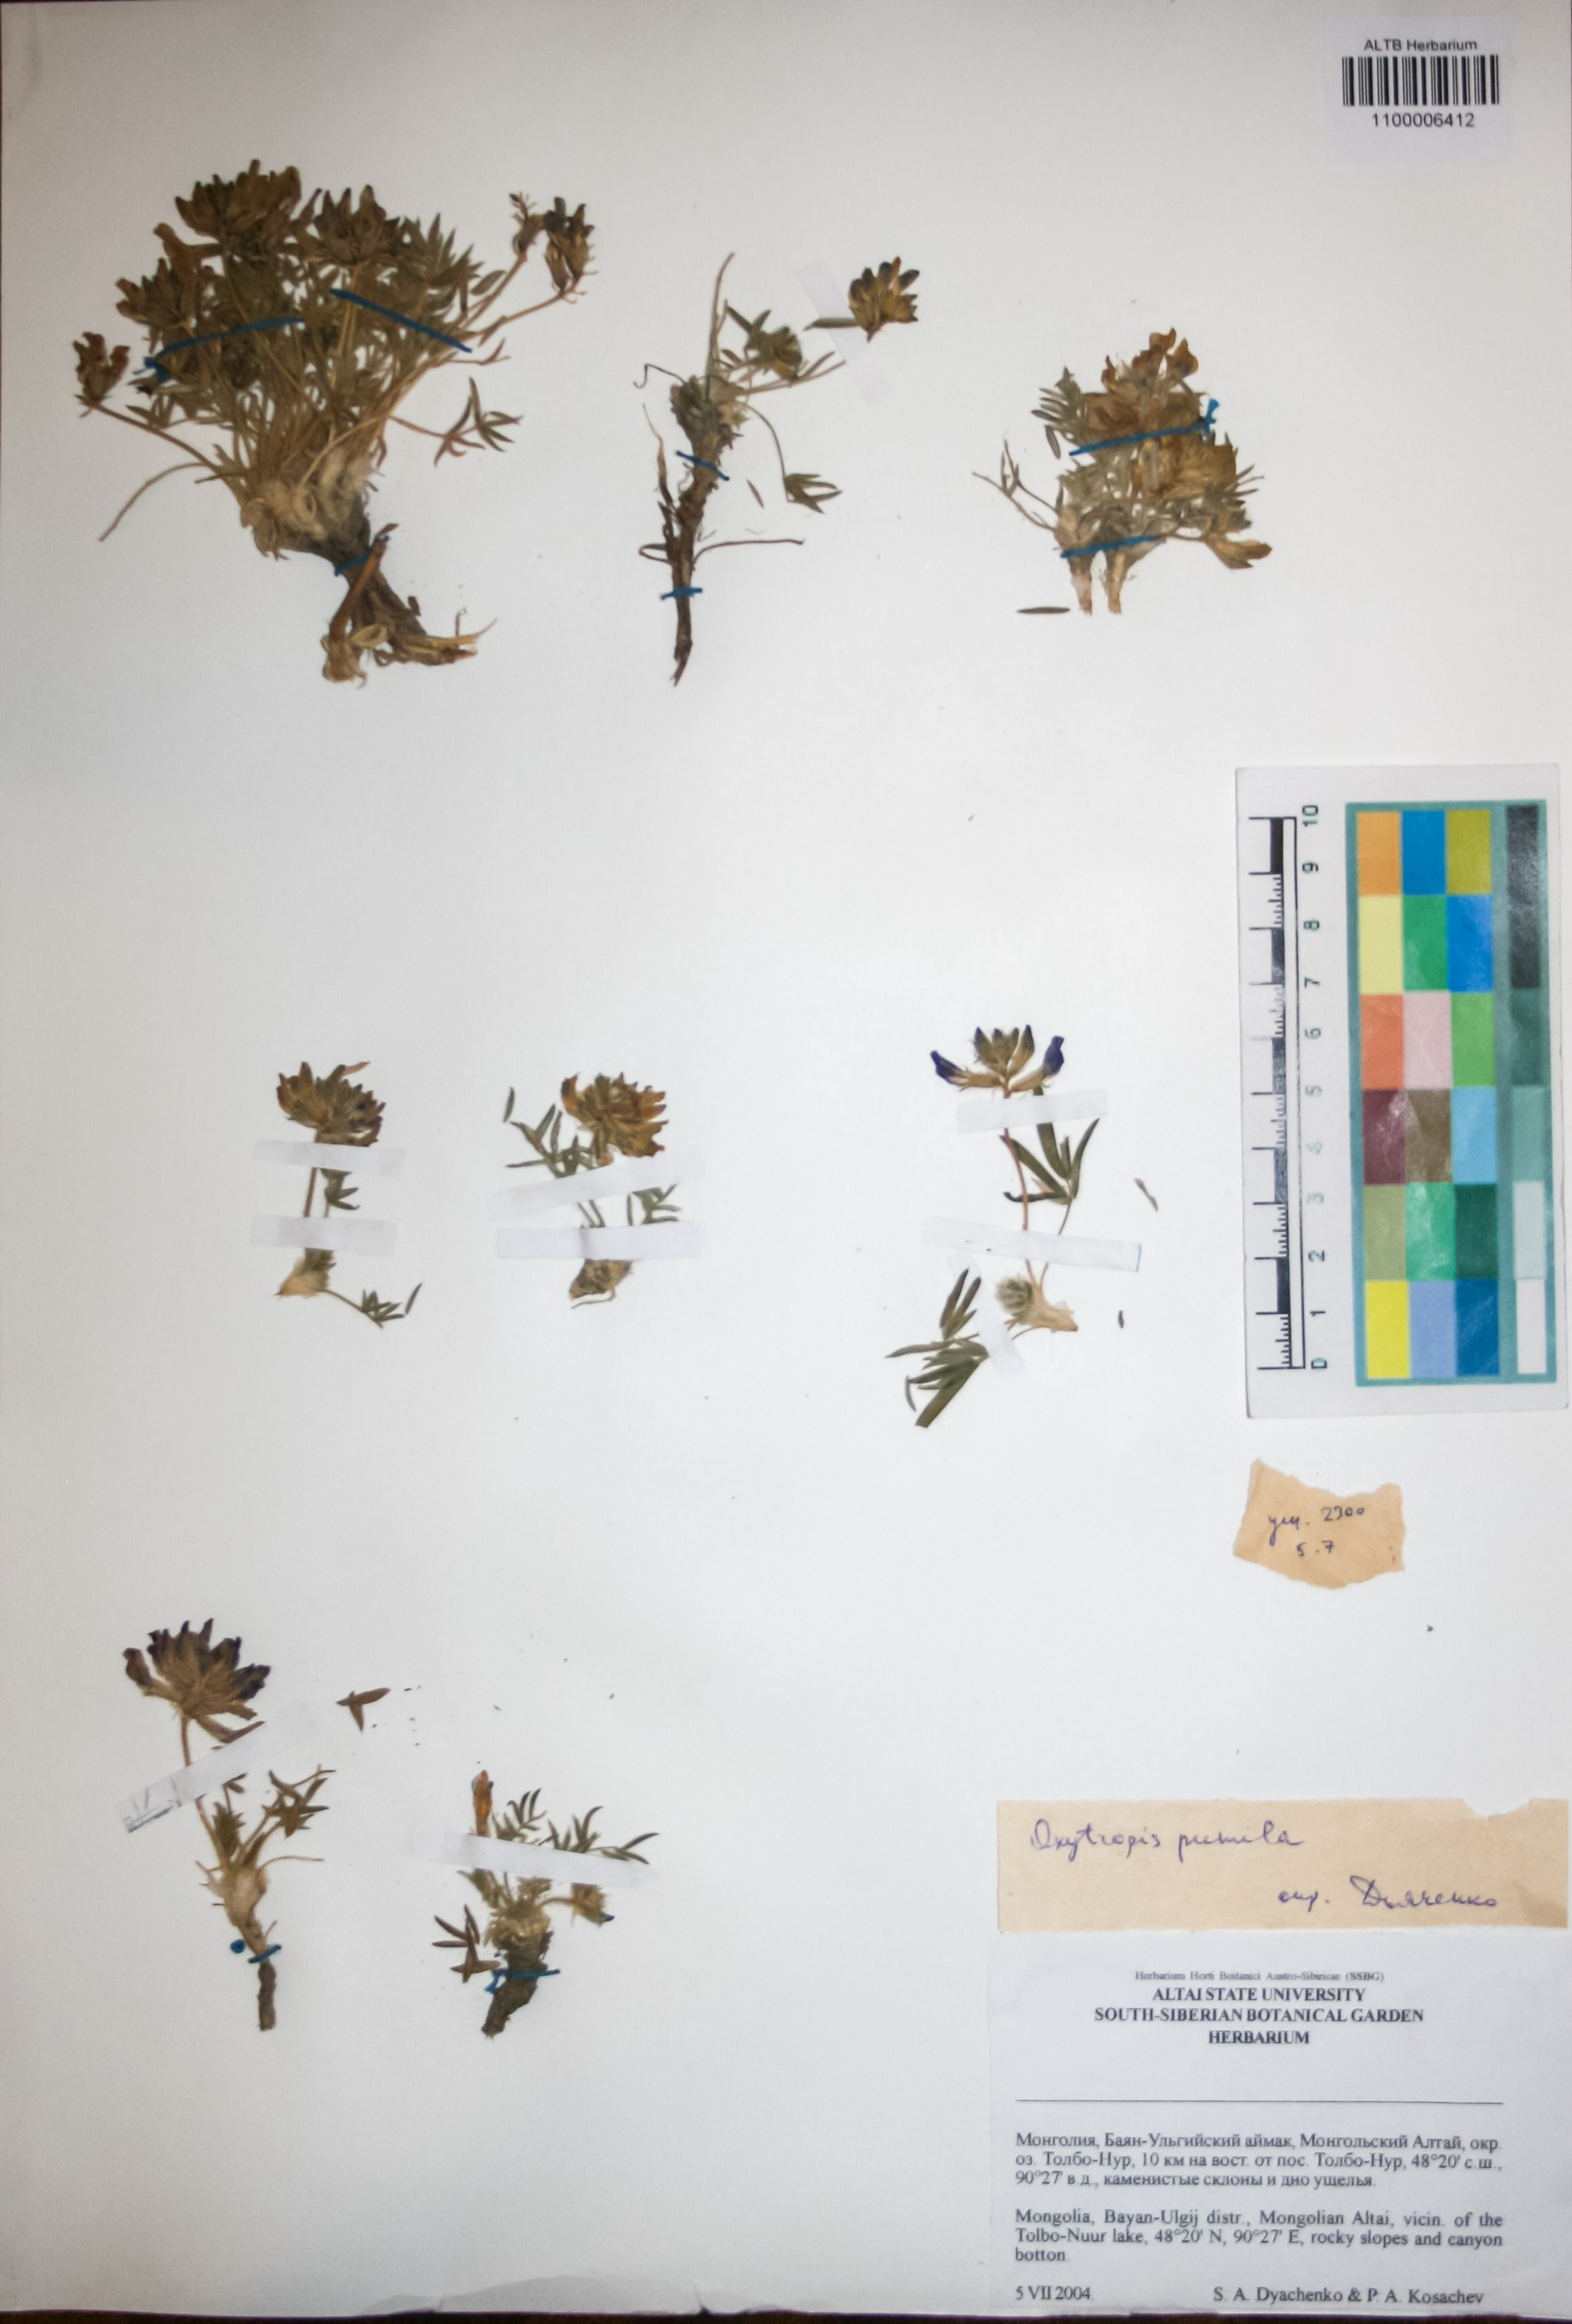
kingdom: Plantae
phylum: Tracheophyta
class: Magnoliopsida
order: Fabales
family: Fabaceae
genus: Oxytropis
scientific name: Oxytropis pumila
